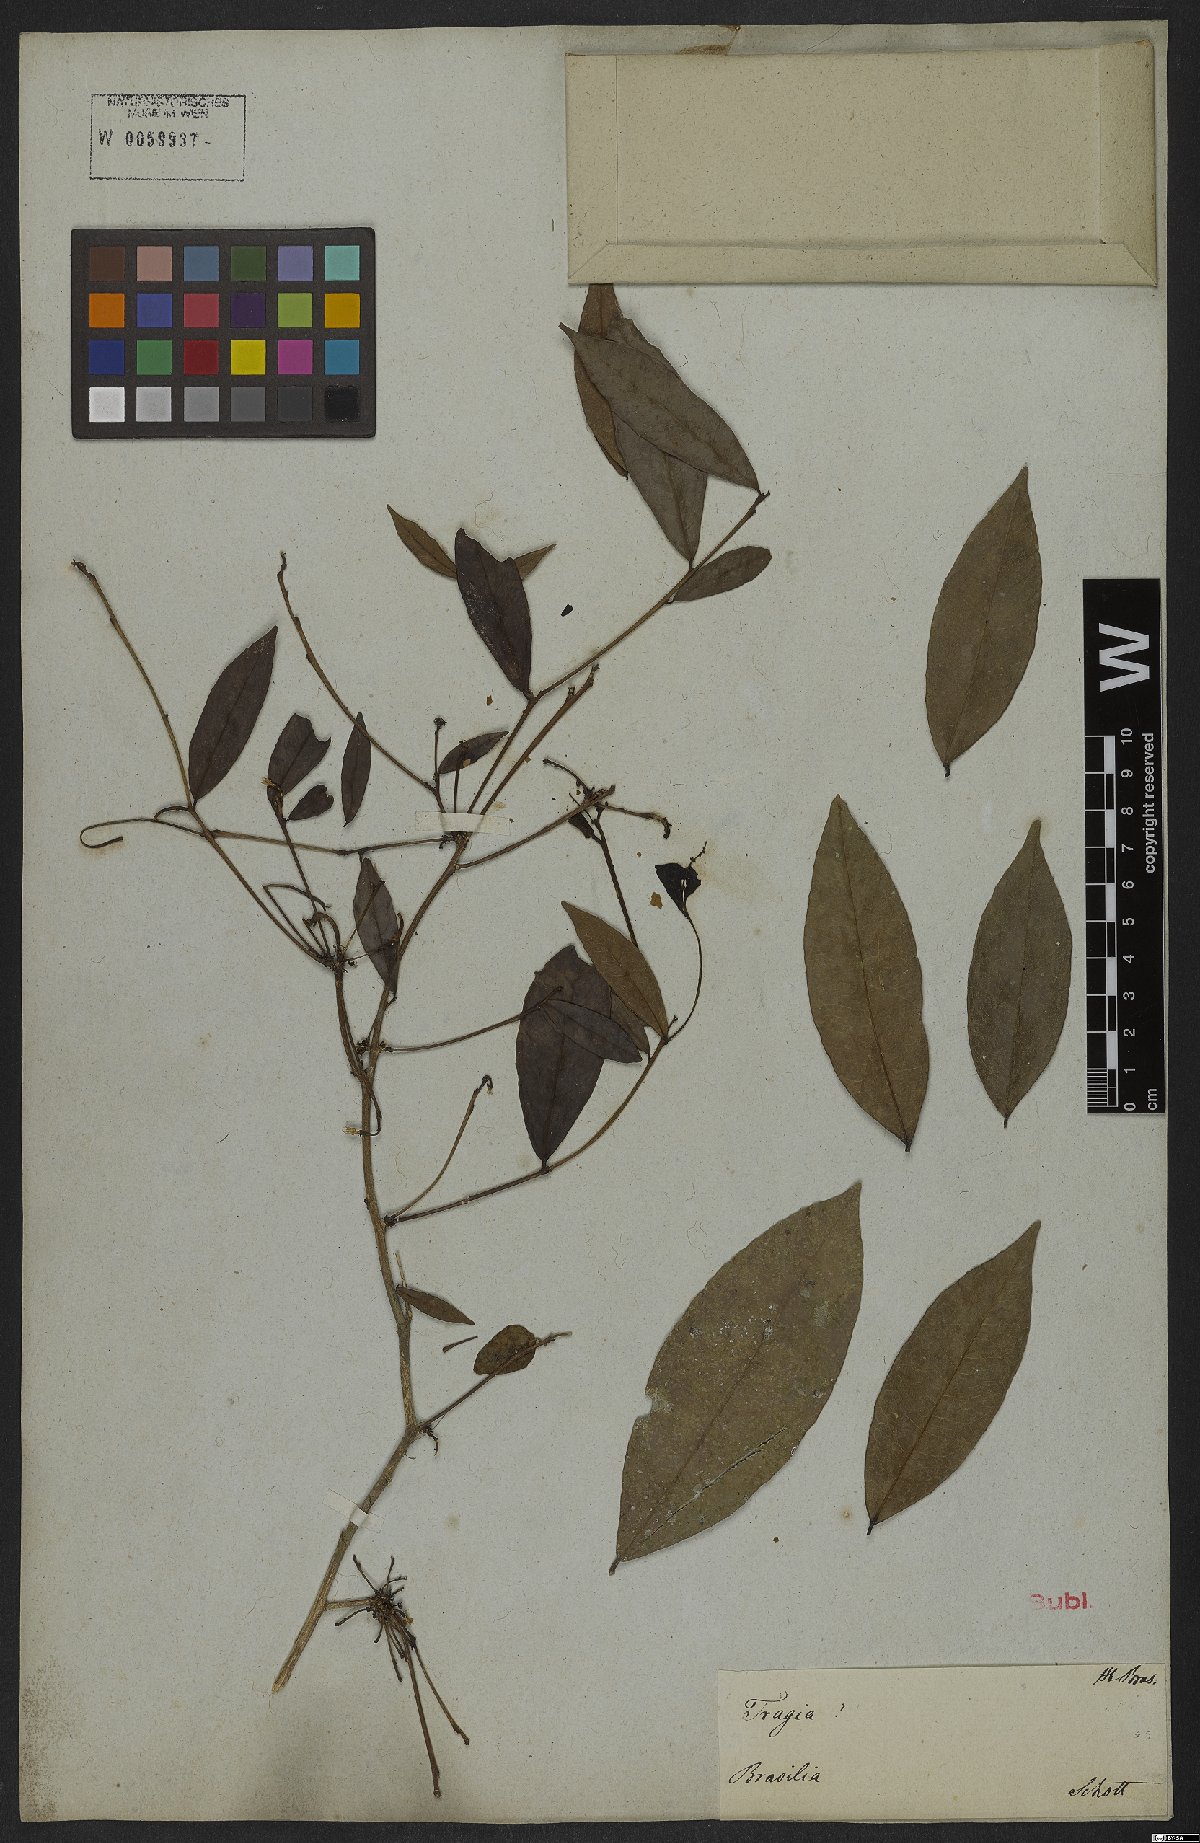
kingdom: Plantae
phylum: Tracheophyta
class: Magnoliopsida
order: Malpighiales
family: Euphorbiaceae
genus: Adelia
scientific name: Adelia membranifolia
